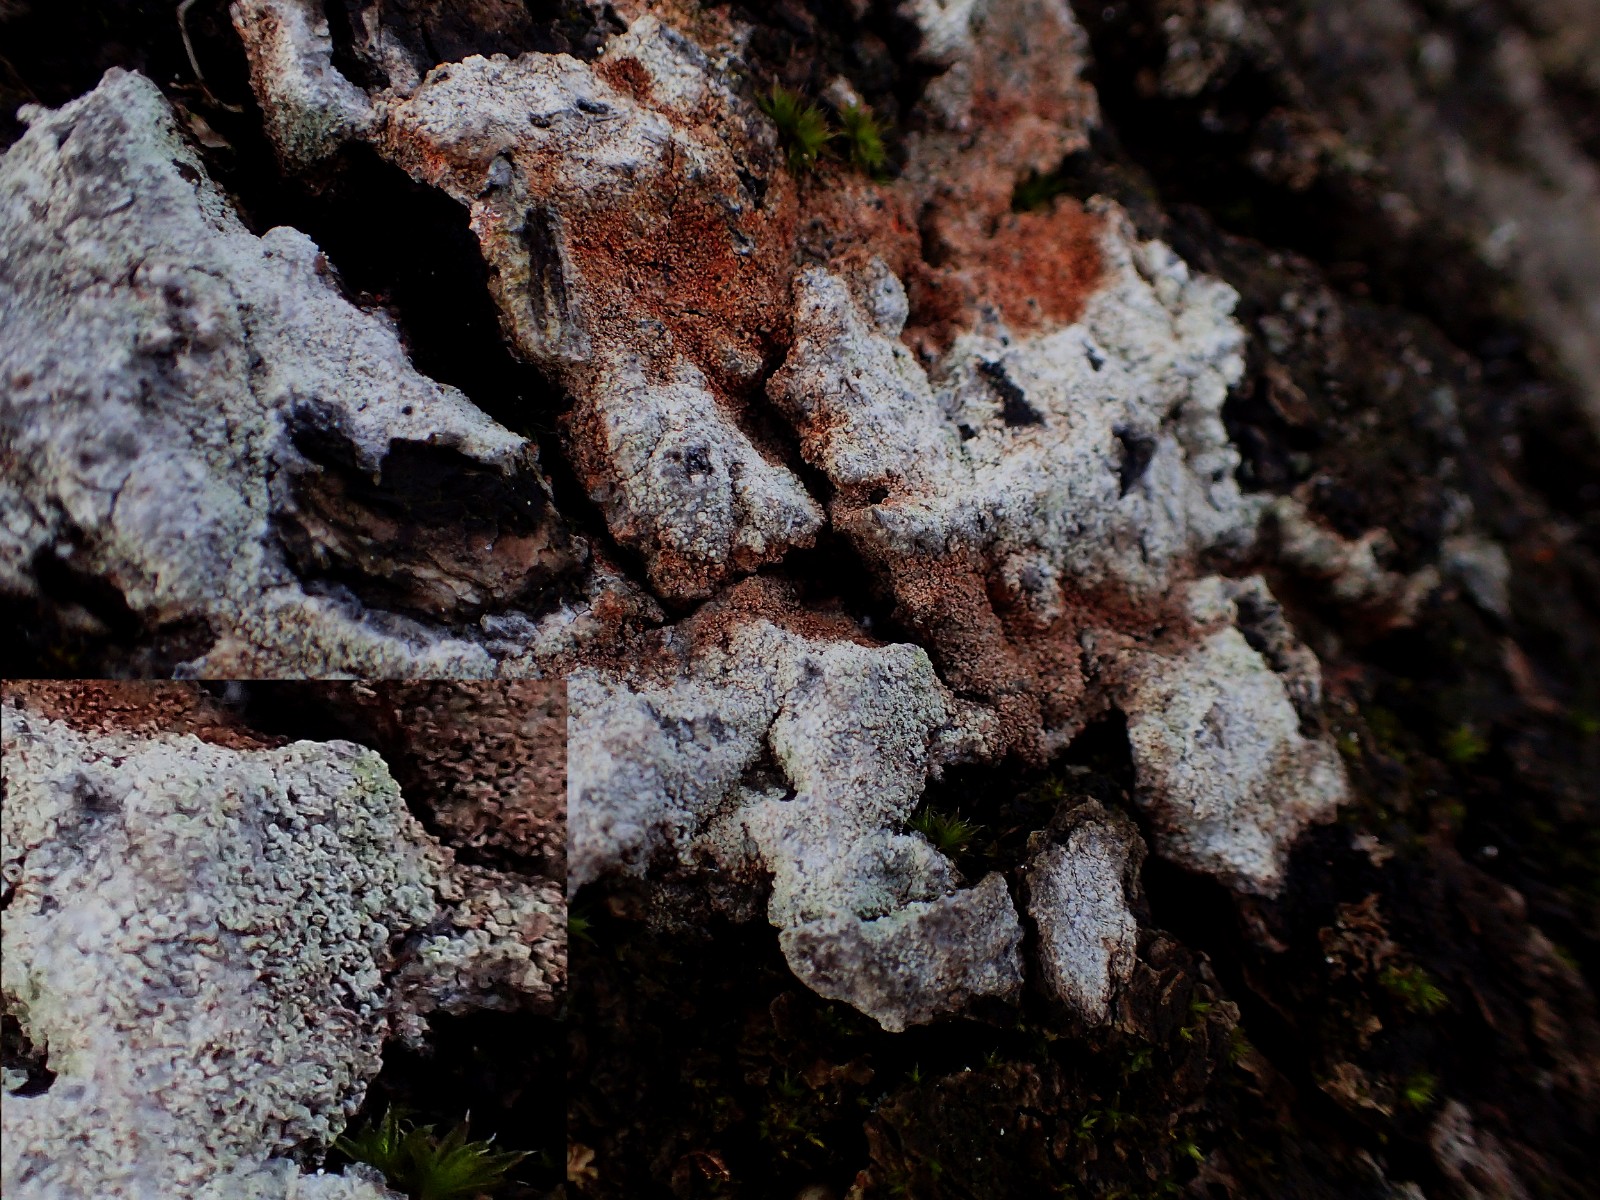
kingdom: Fungi
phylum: Basidiomycota
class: Agaricomycetes
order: Corticiales
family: Corticiaceae
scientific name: Corticiaceae
